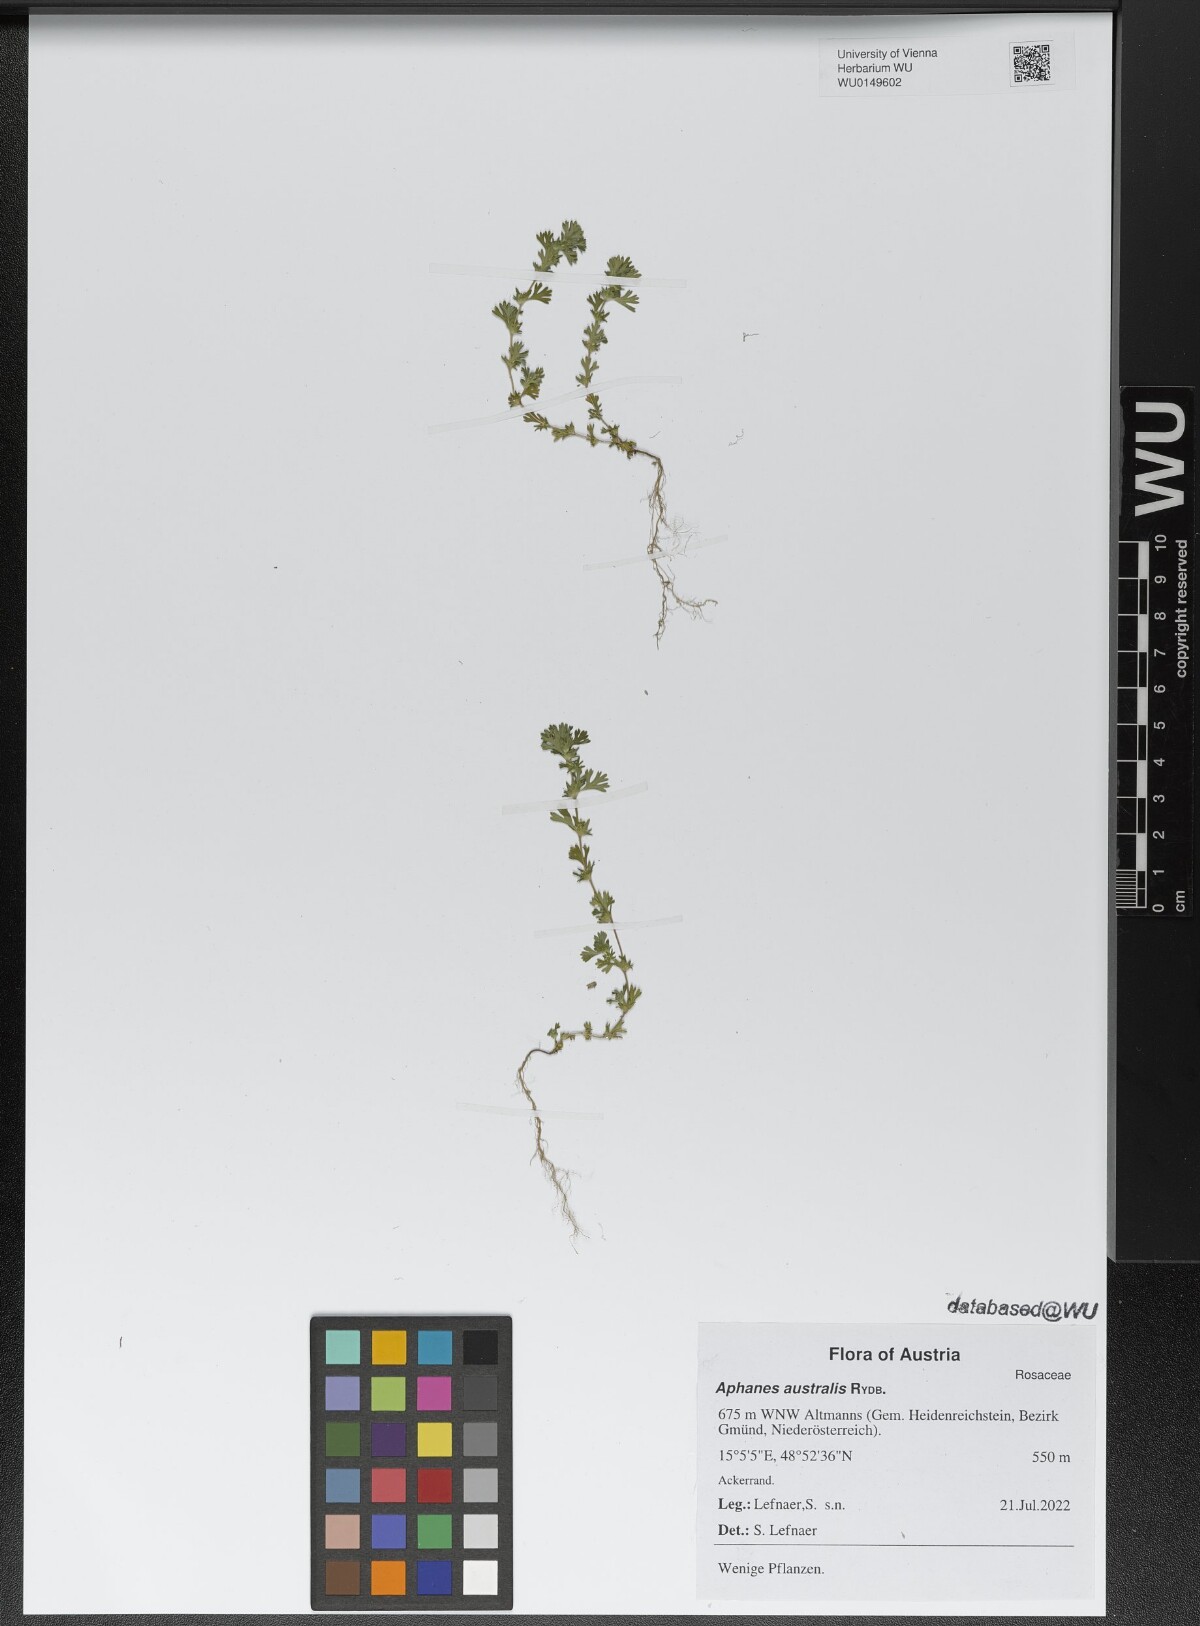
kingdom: Plantae
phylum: Tracheophyta
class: Magnoliopsida
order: Rosales
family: Rosaceae
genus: Aphanes
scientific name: Aphanes australis
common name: Slender parsley-piert
